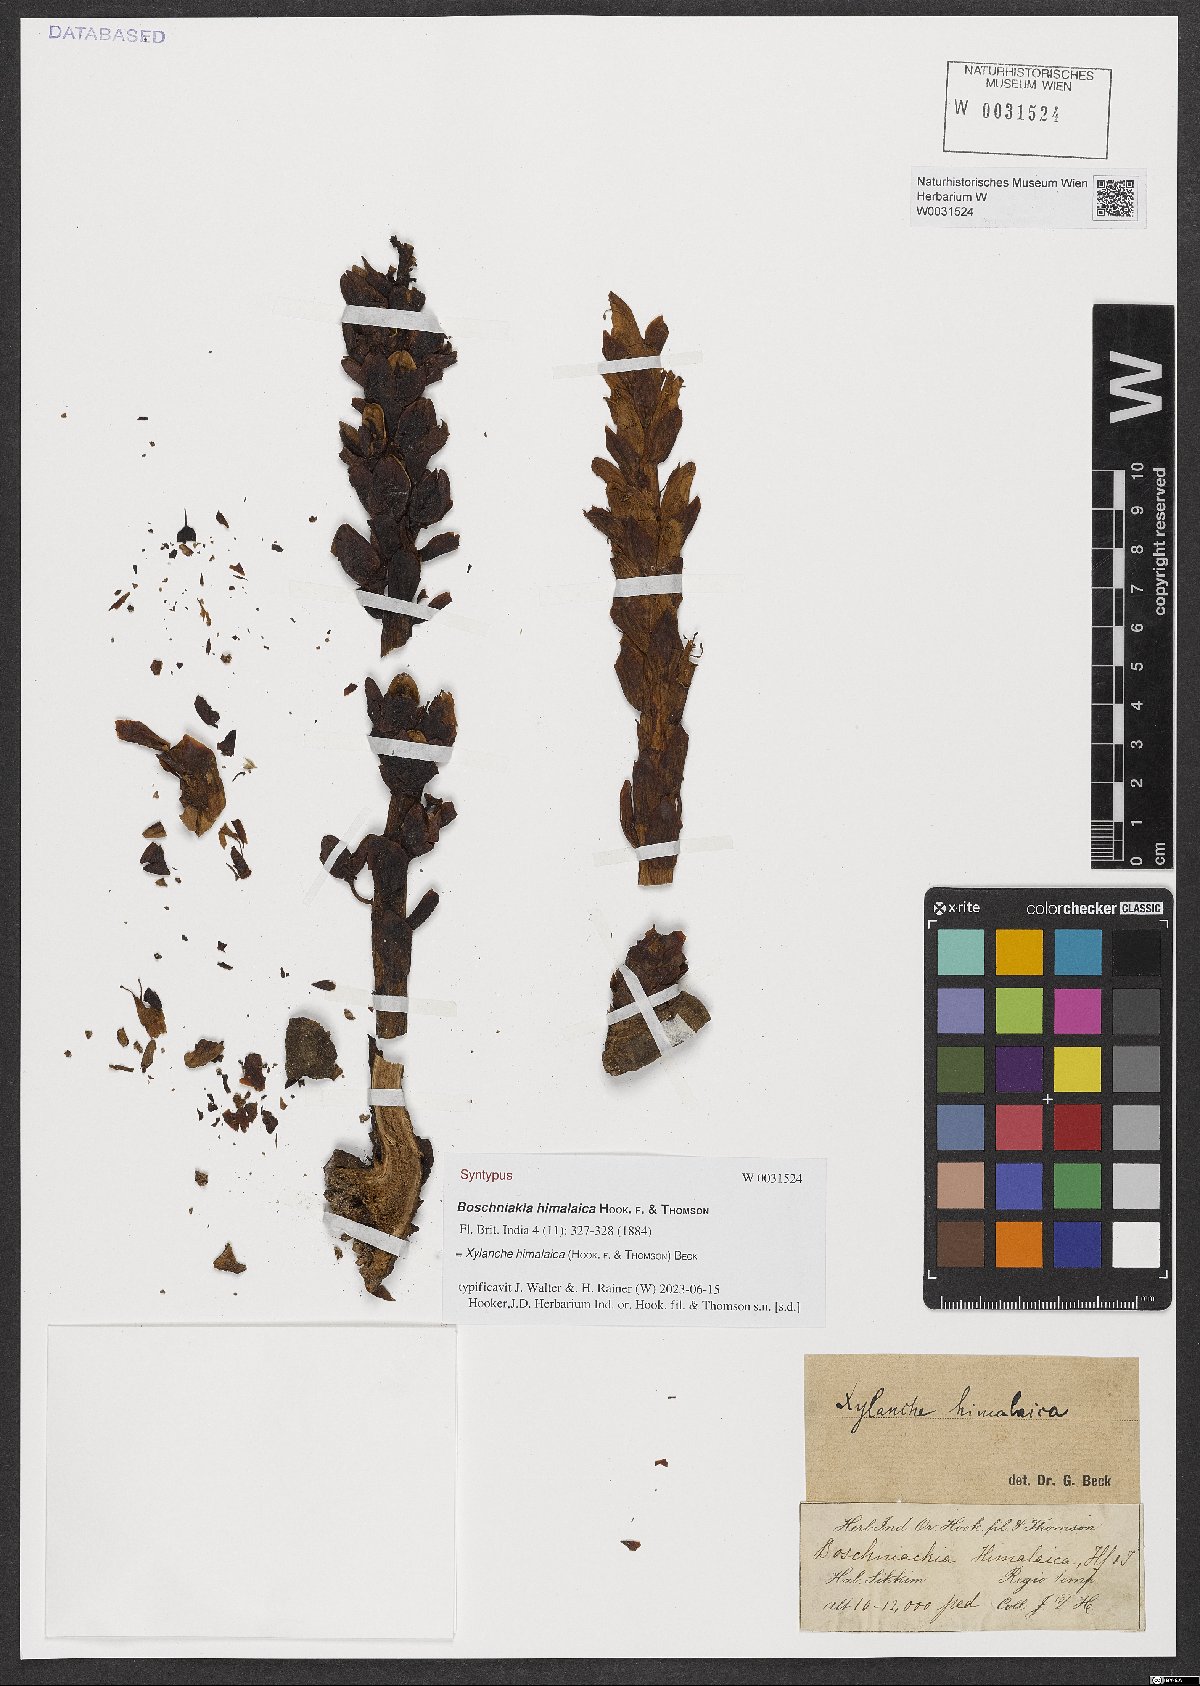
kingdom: Plantae
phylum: Tracheophyta
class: Magnoliopsida
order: Lamiales
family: Orobanchaceae
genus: Boschniakia
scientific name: Boschniakia himalaica
